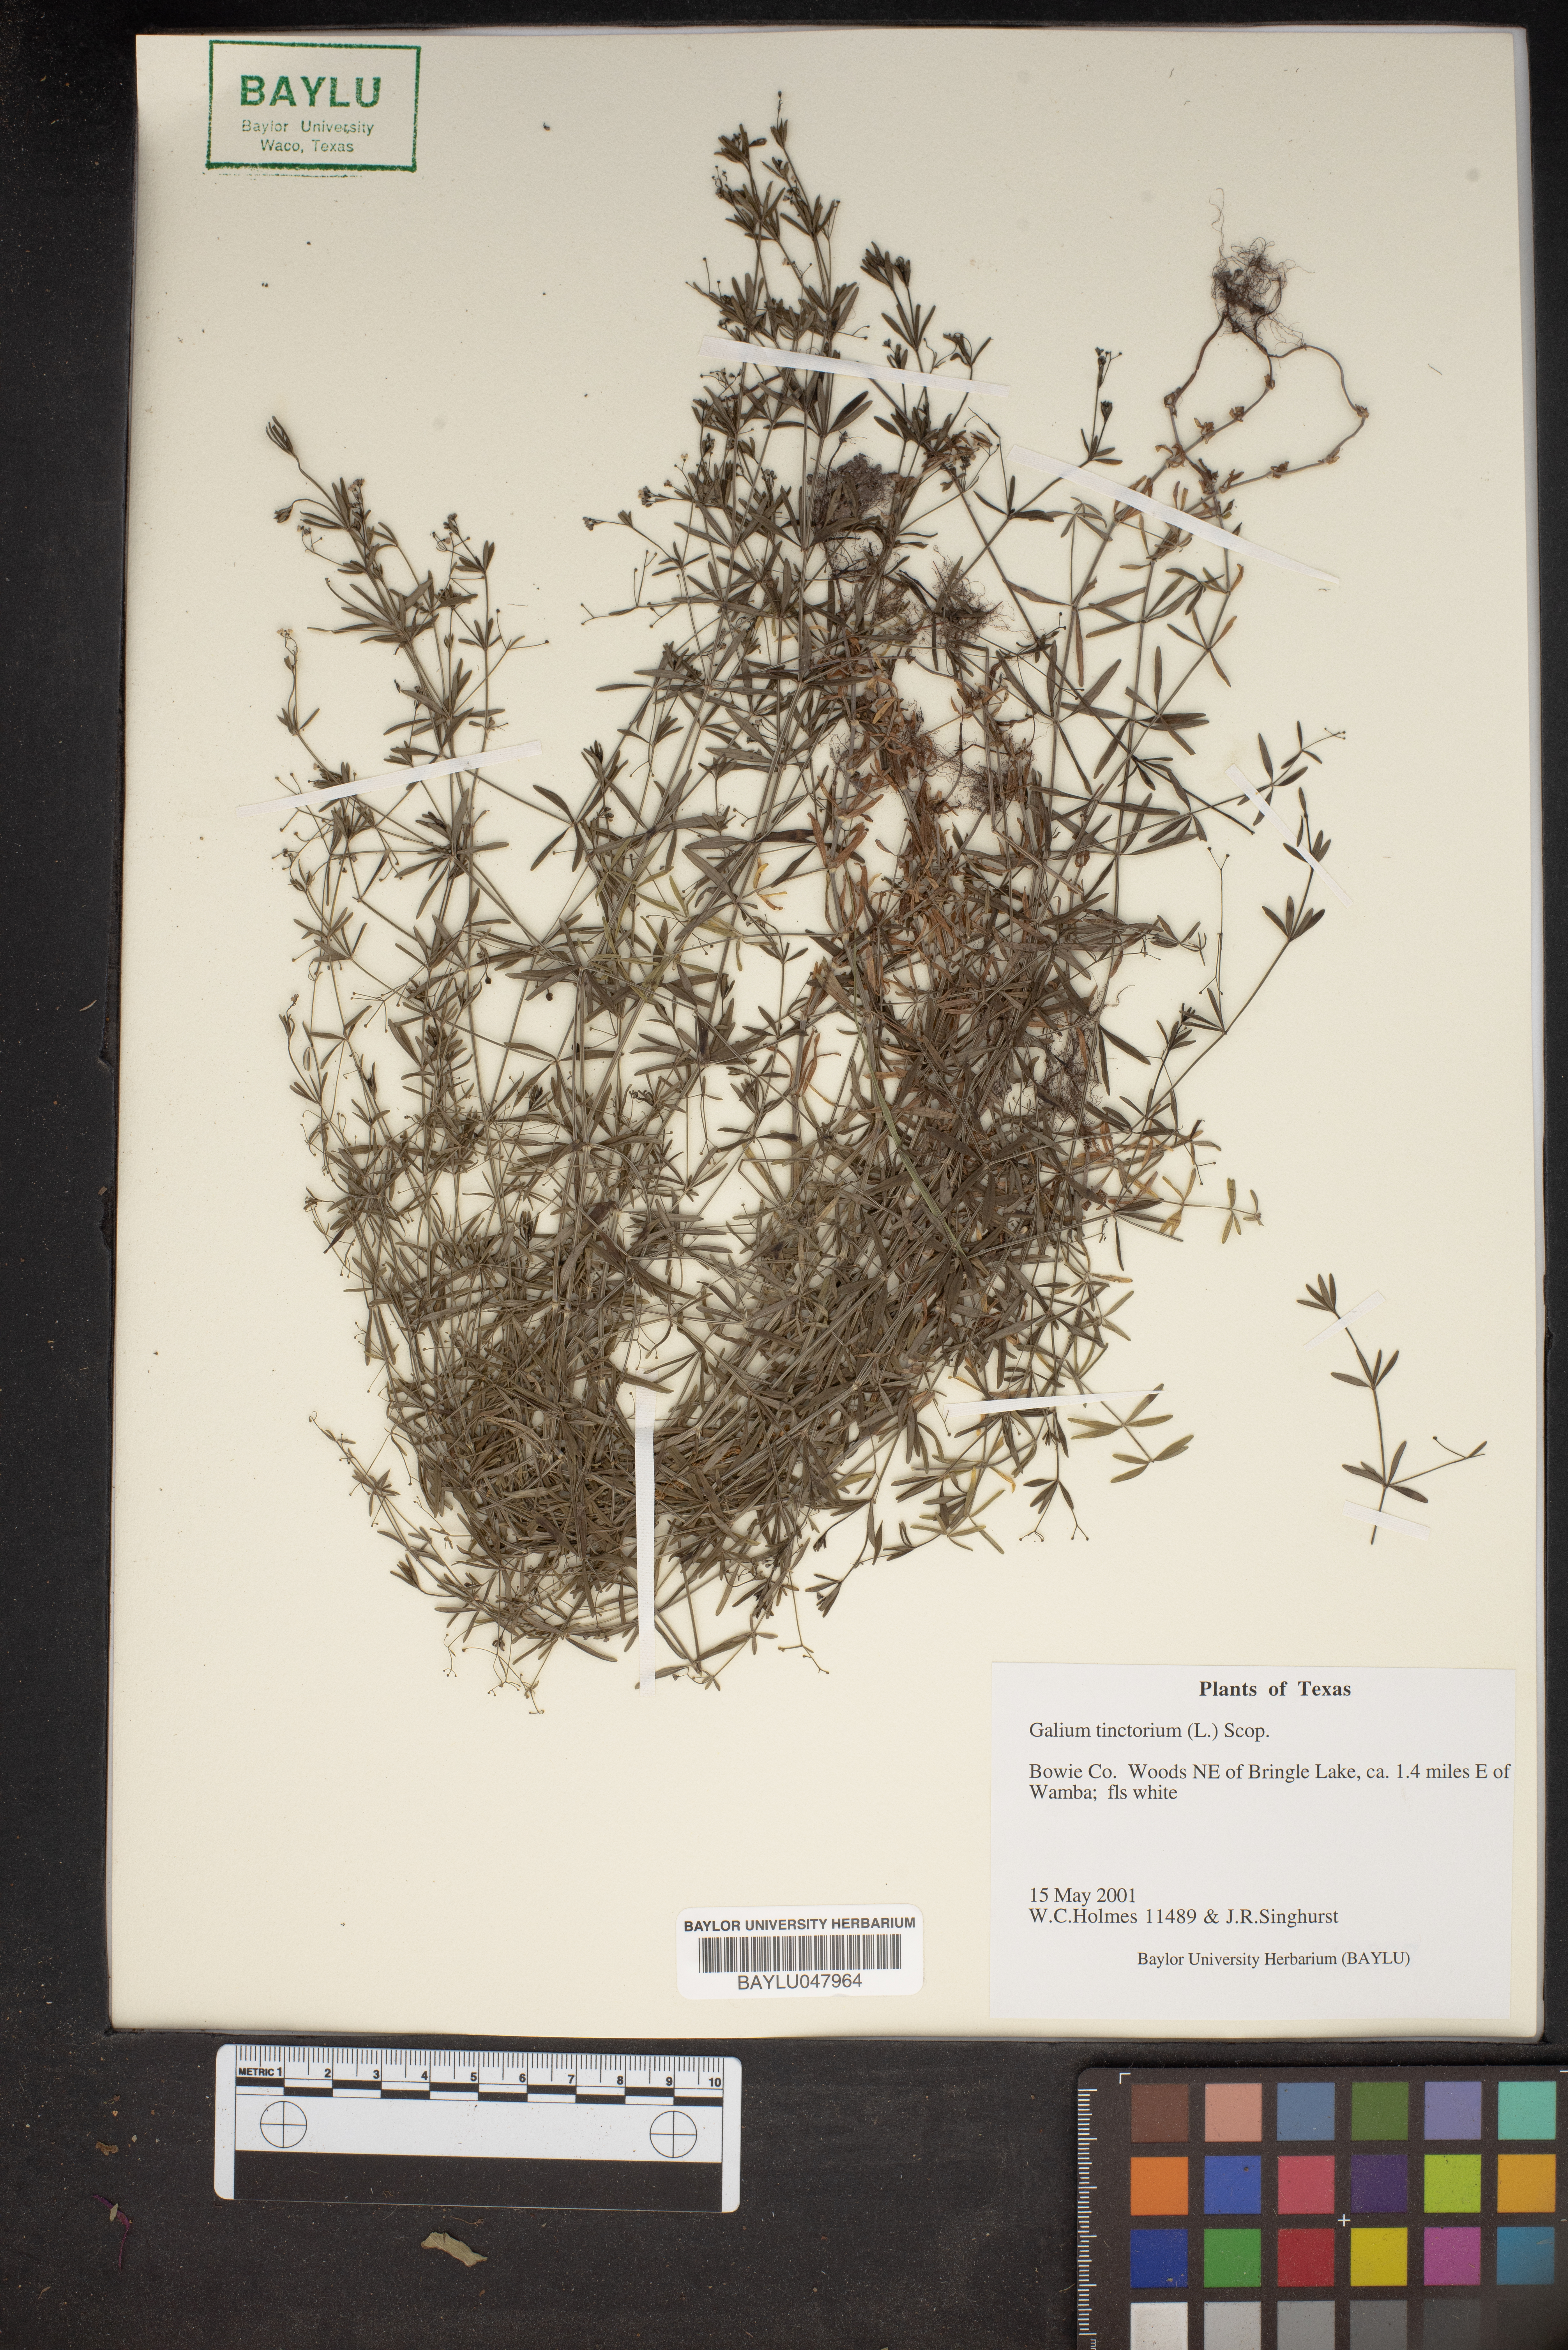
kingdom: Plantae
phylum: Tracheophyta
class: Magnoliopsida
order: Gentianales
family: Rubiaceae
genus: Asperula
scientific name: Asperula tinctoria
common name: Dyer's woodruff
